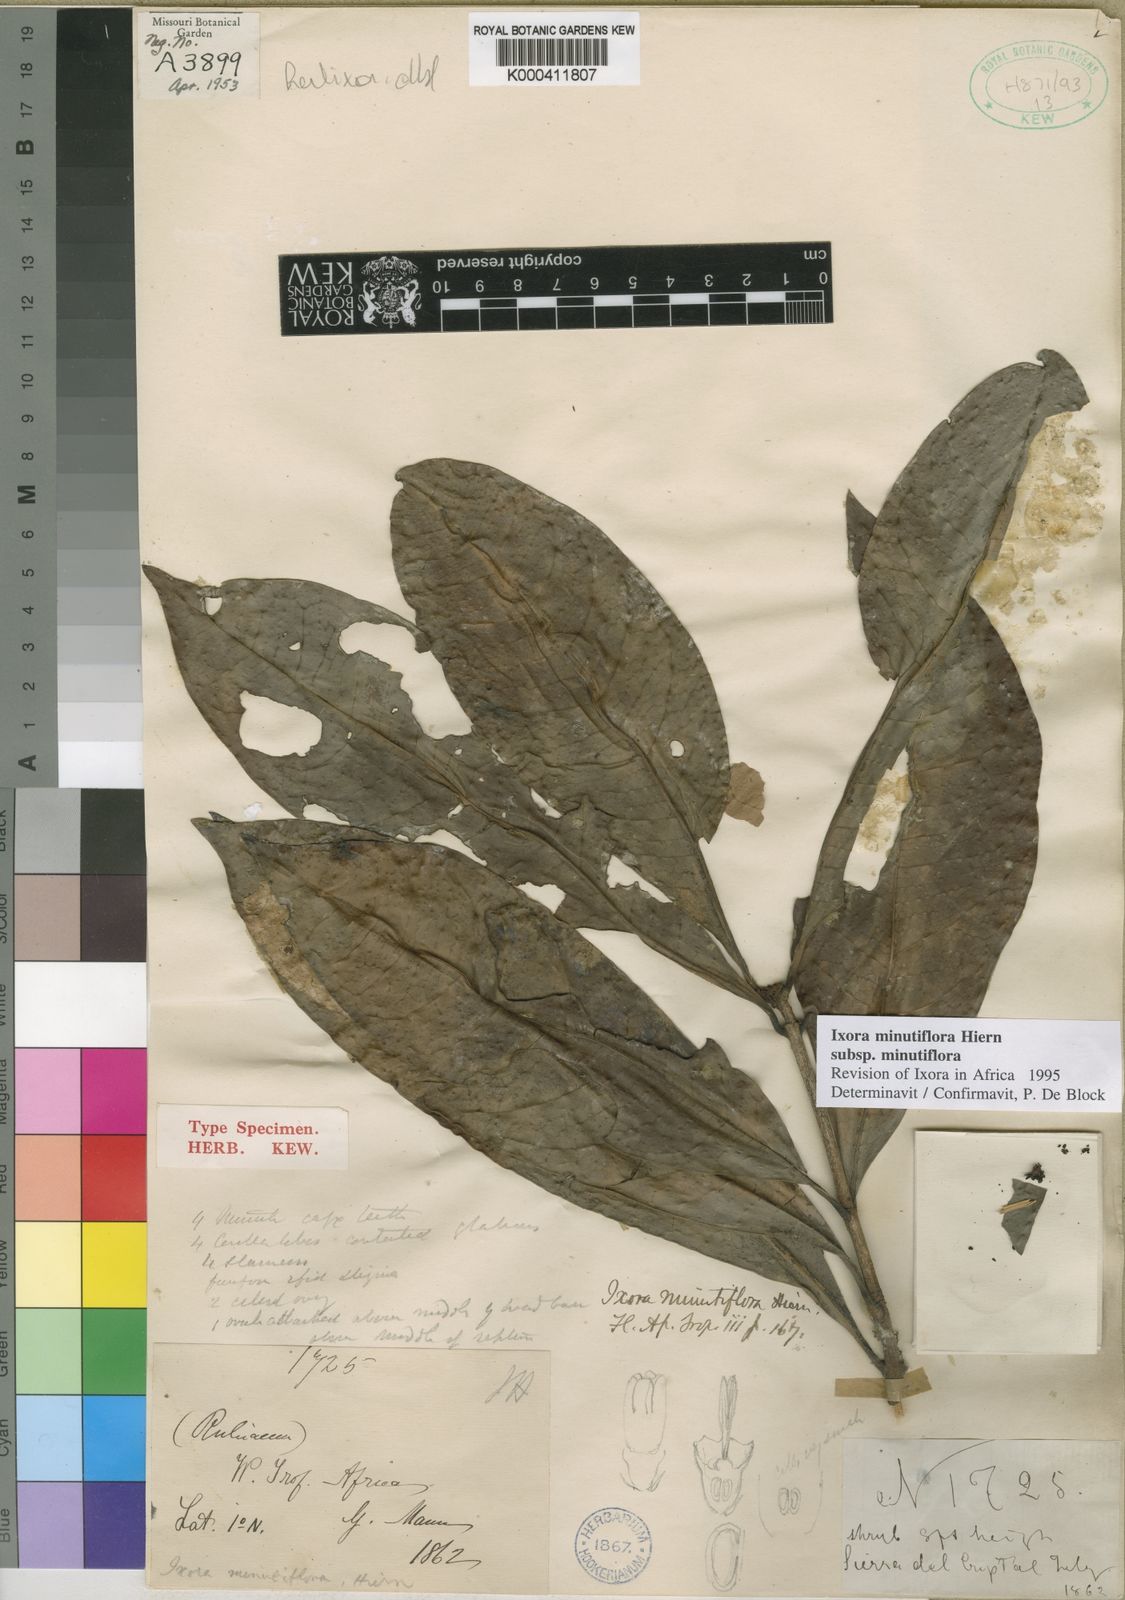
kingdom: Plantae
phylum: Tracheophyta
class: Magnoliopsida
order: Gentianales
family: Rubiaceae
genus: Ixora
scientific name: Ixora minutiflora
